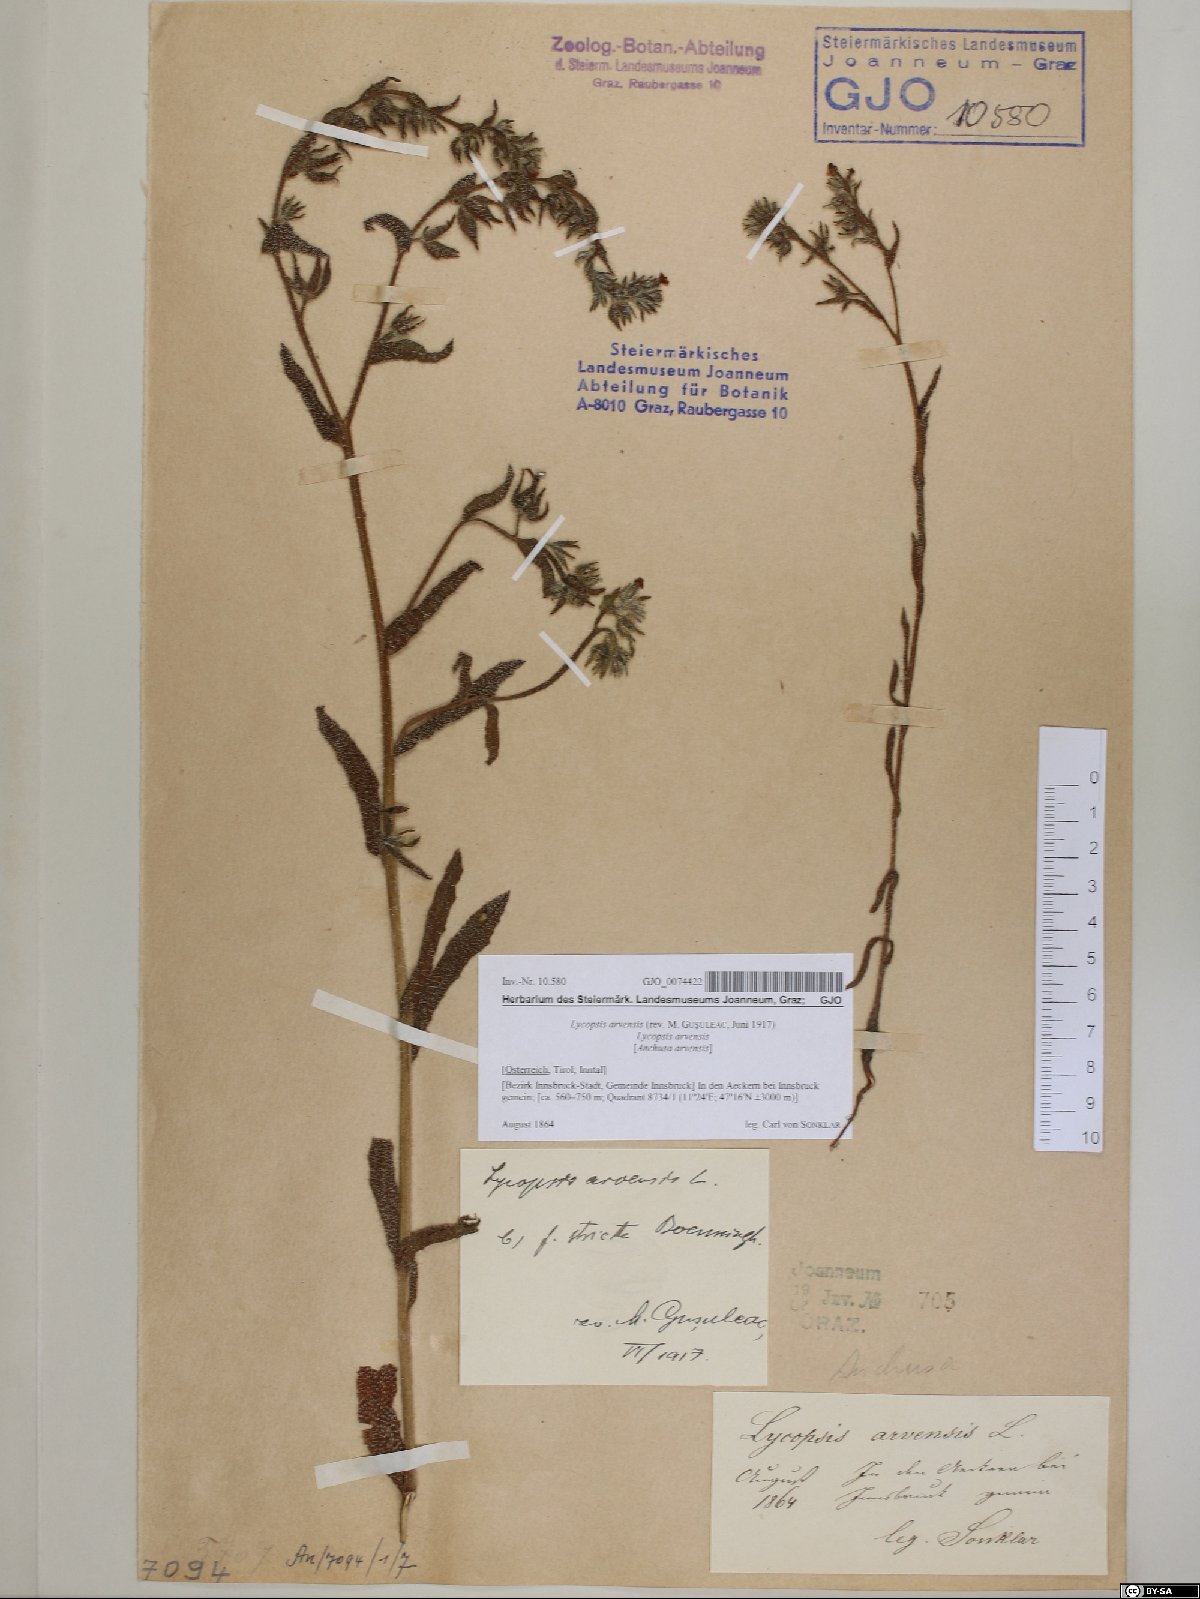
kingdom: Plantae
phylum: Tracheophyta
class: Magnoliopsida
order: Boraginales
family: Boraginaceae
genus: Lycopsis
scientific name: Lycopsis arvensis
